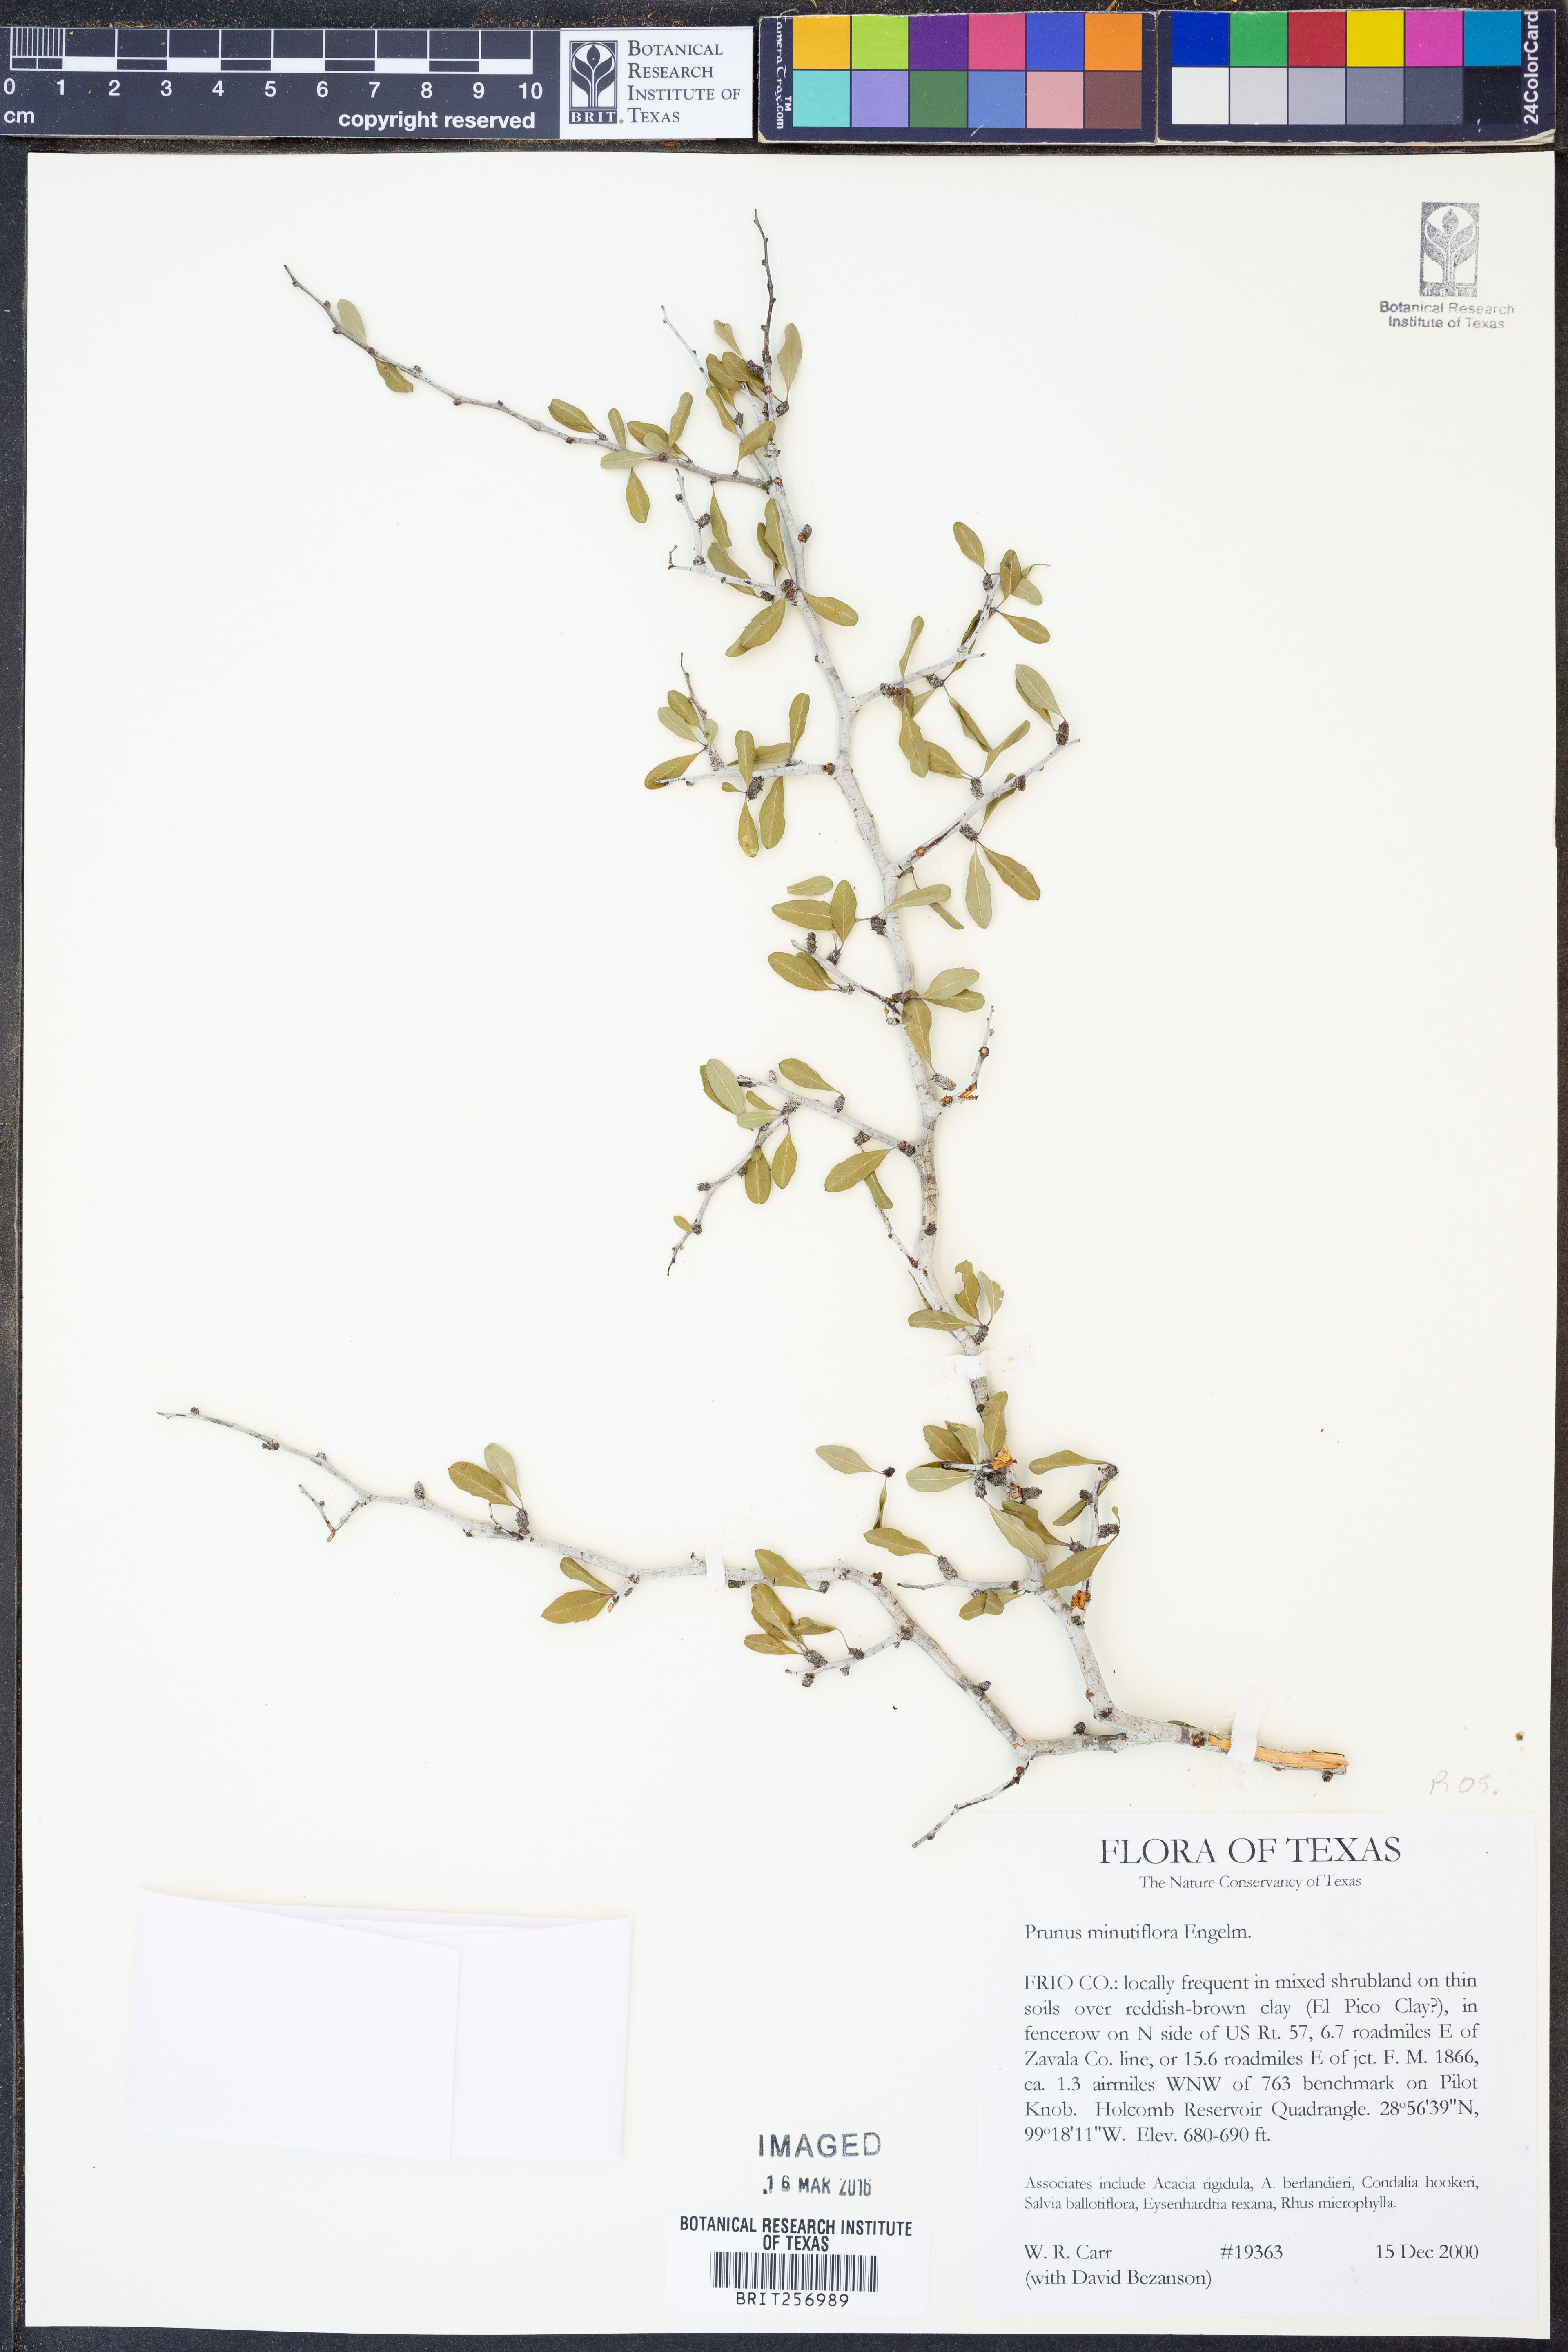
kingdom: Plantae
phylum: Tracheophyta
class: Magnoliopsida
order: Rosales
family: Rosaceae
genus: Prunus
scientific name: Prunus minutiflora
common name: Texas almond
